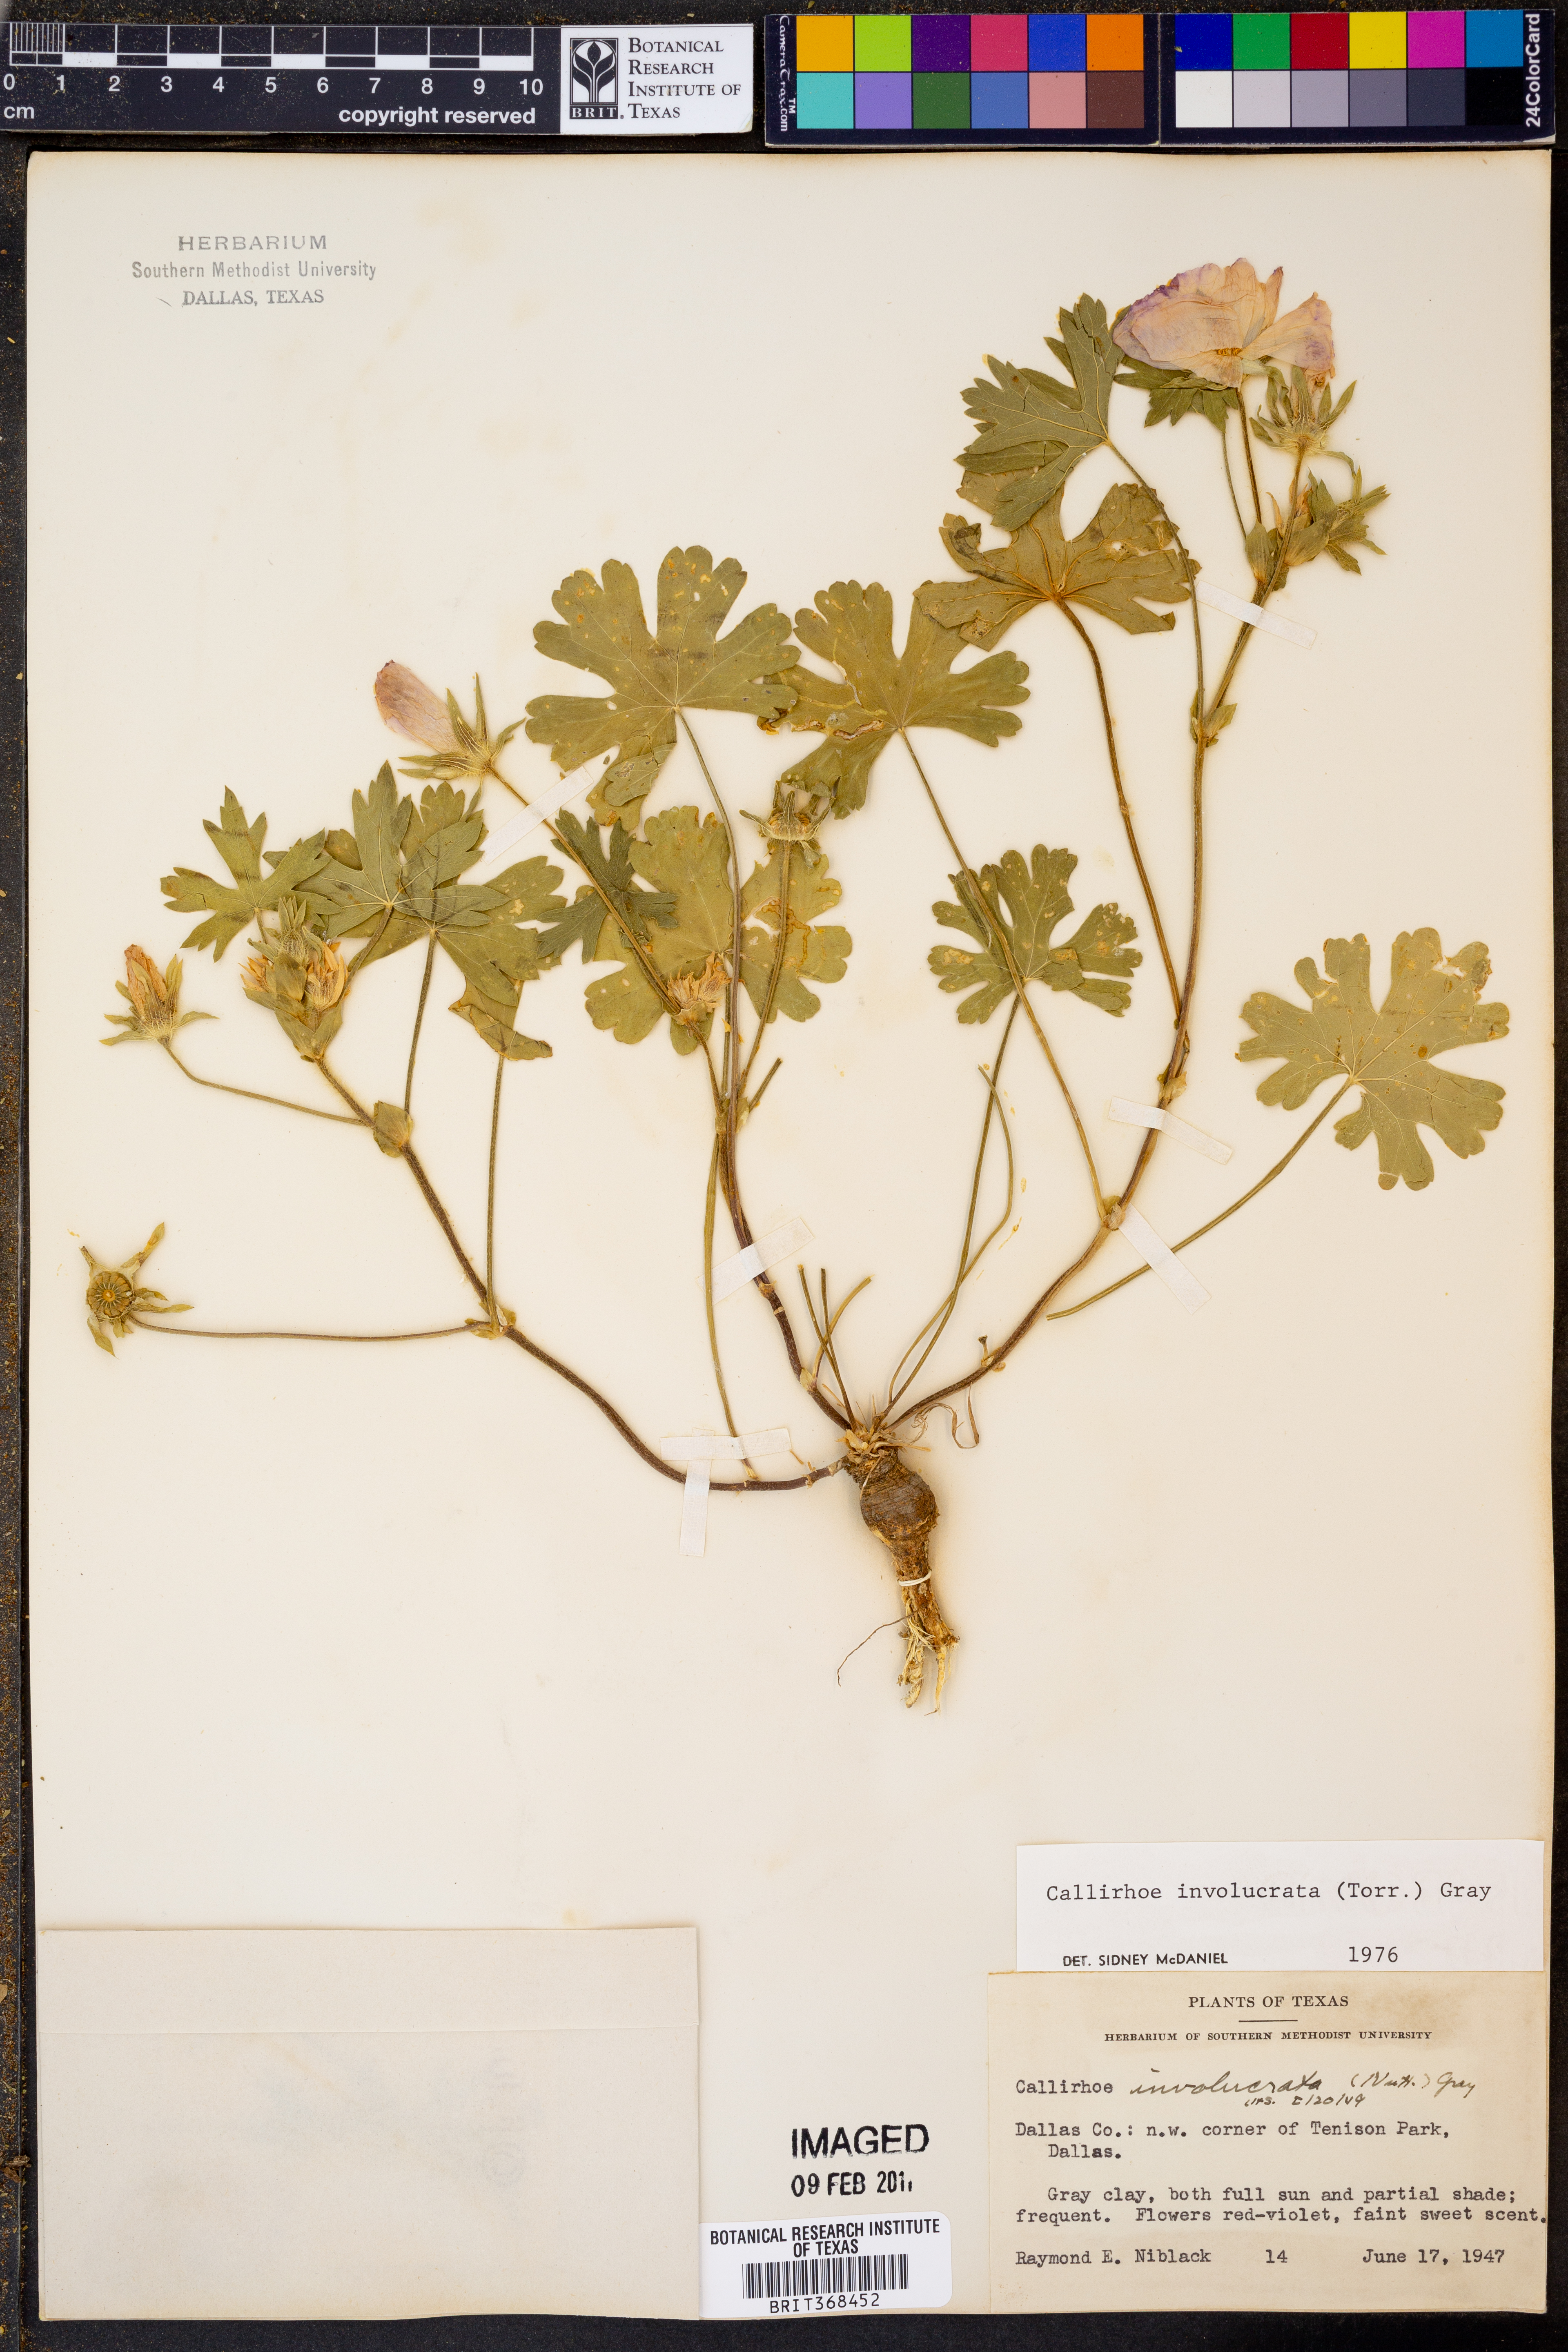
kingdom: Plantae
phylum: Tracheophyta
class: Magnoliopsida
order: Malvales
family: Malvaceae
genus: Callirhoe
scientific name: Callirhoe involucrata
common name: Purple poppy-mallow
